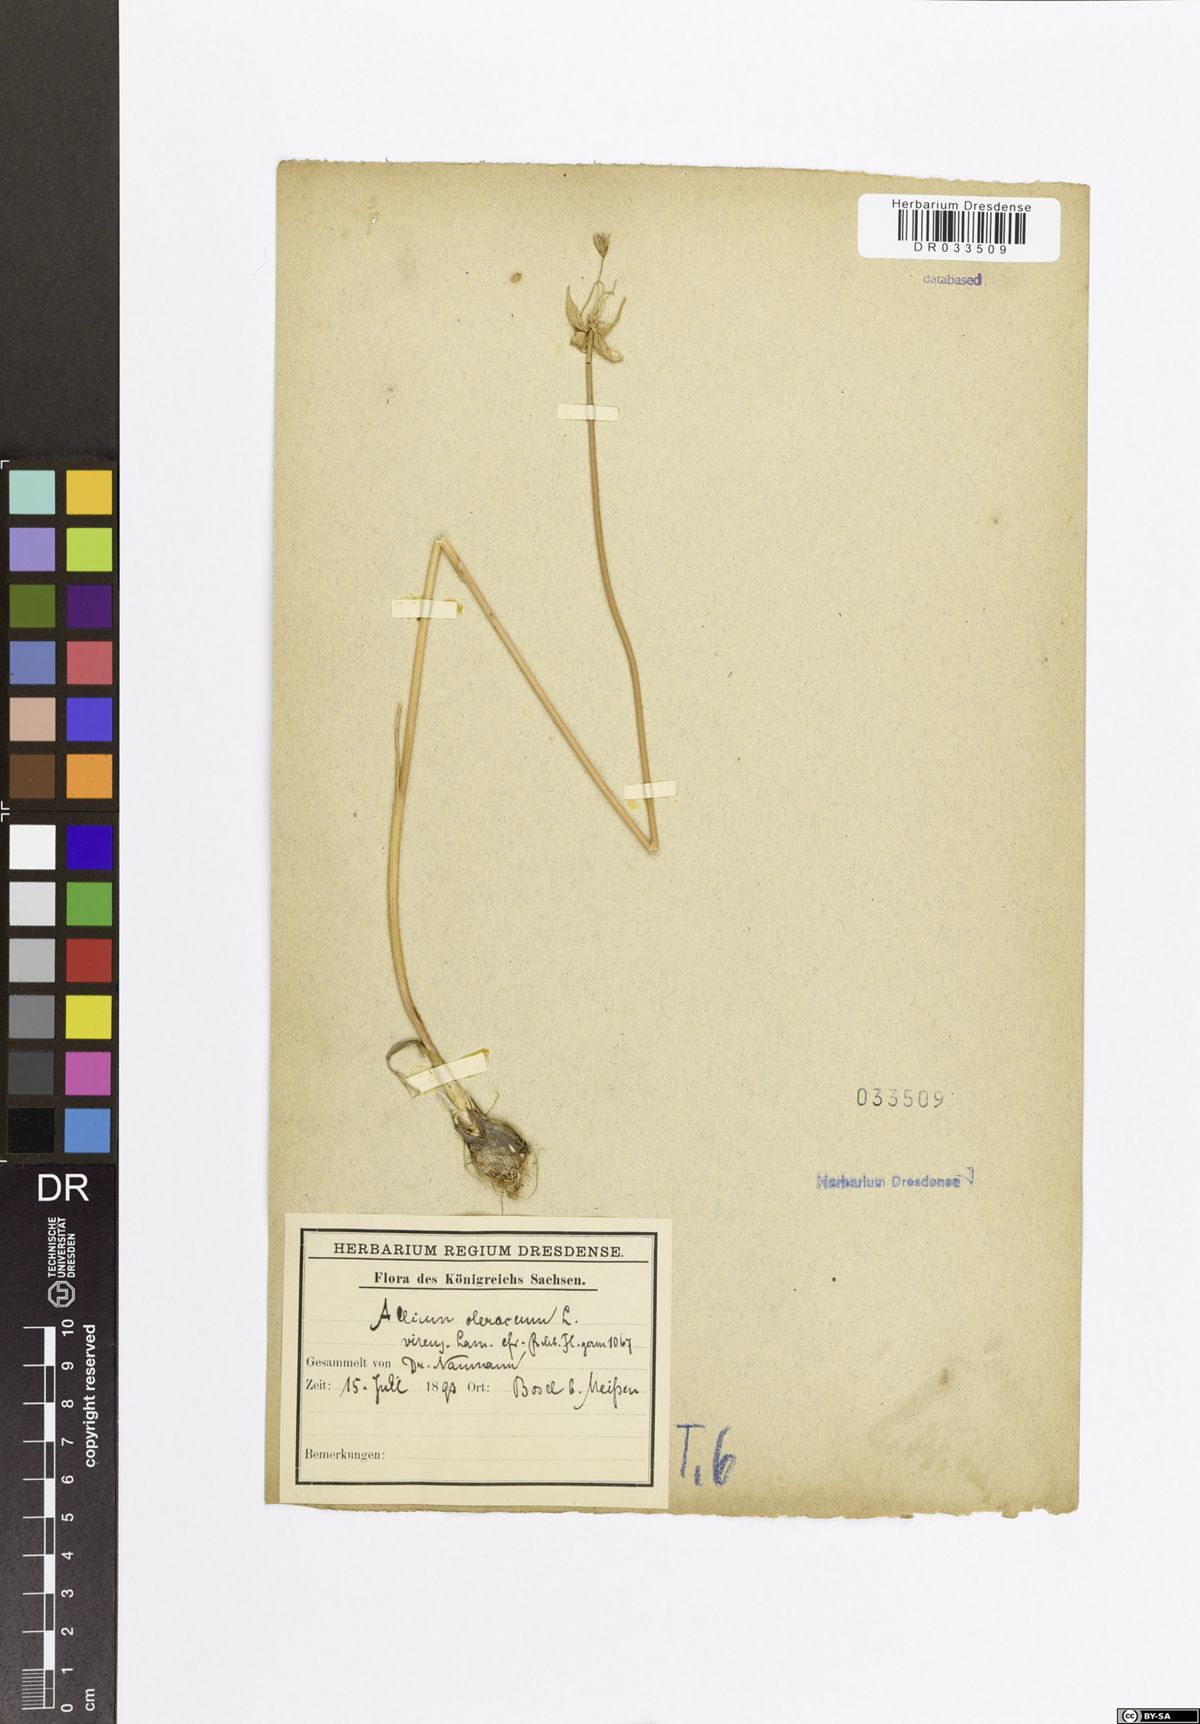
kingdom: Plantae
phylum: Tracheophyta
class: Liliopsida
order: Asparagales
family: Amaryllidaceae
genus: Allium
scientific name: Allium oleraceum
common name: Field garlic
